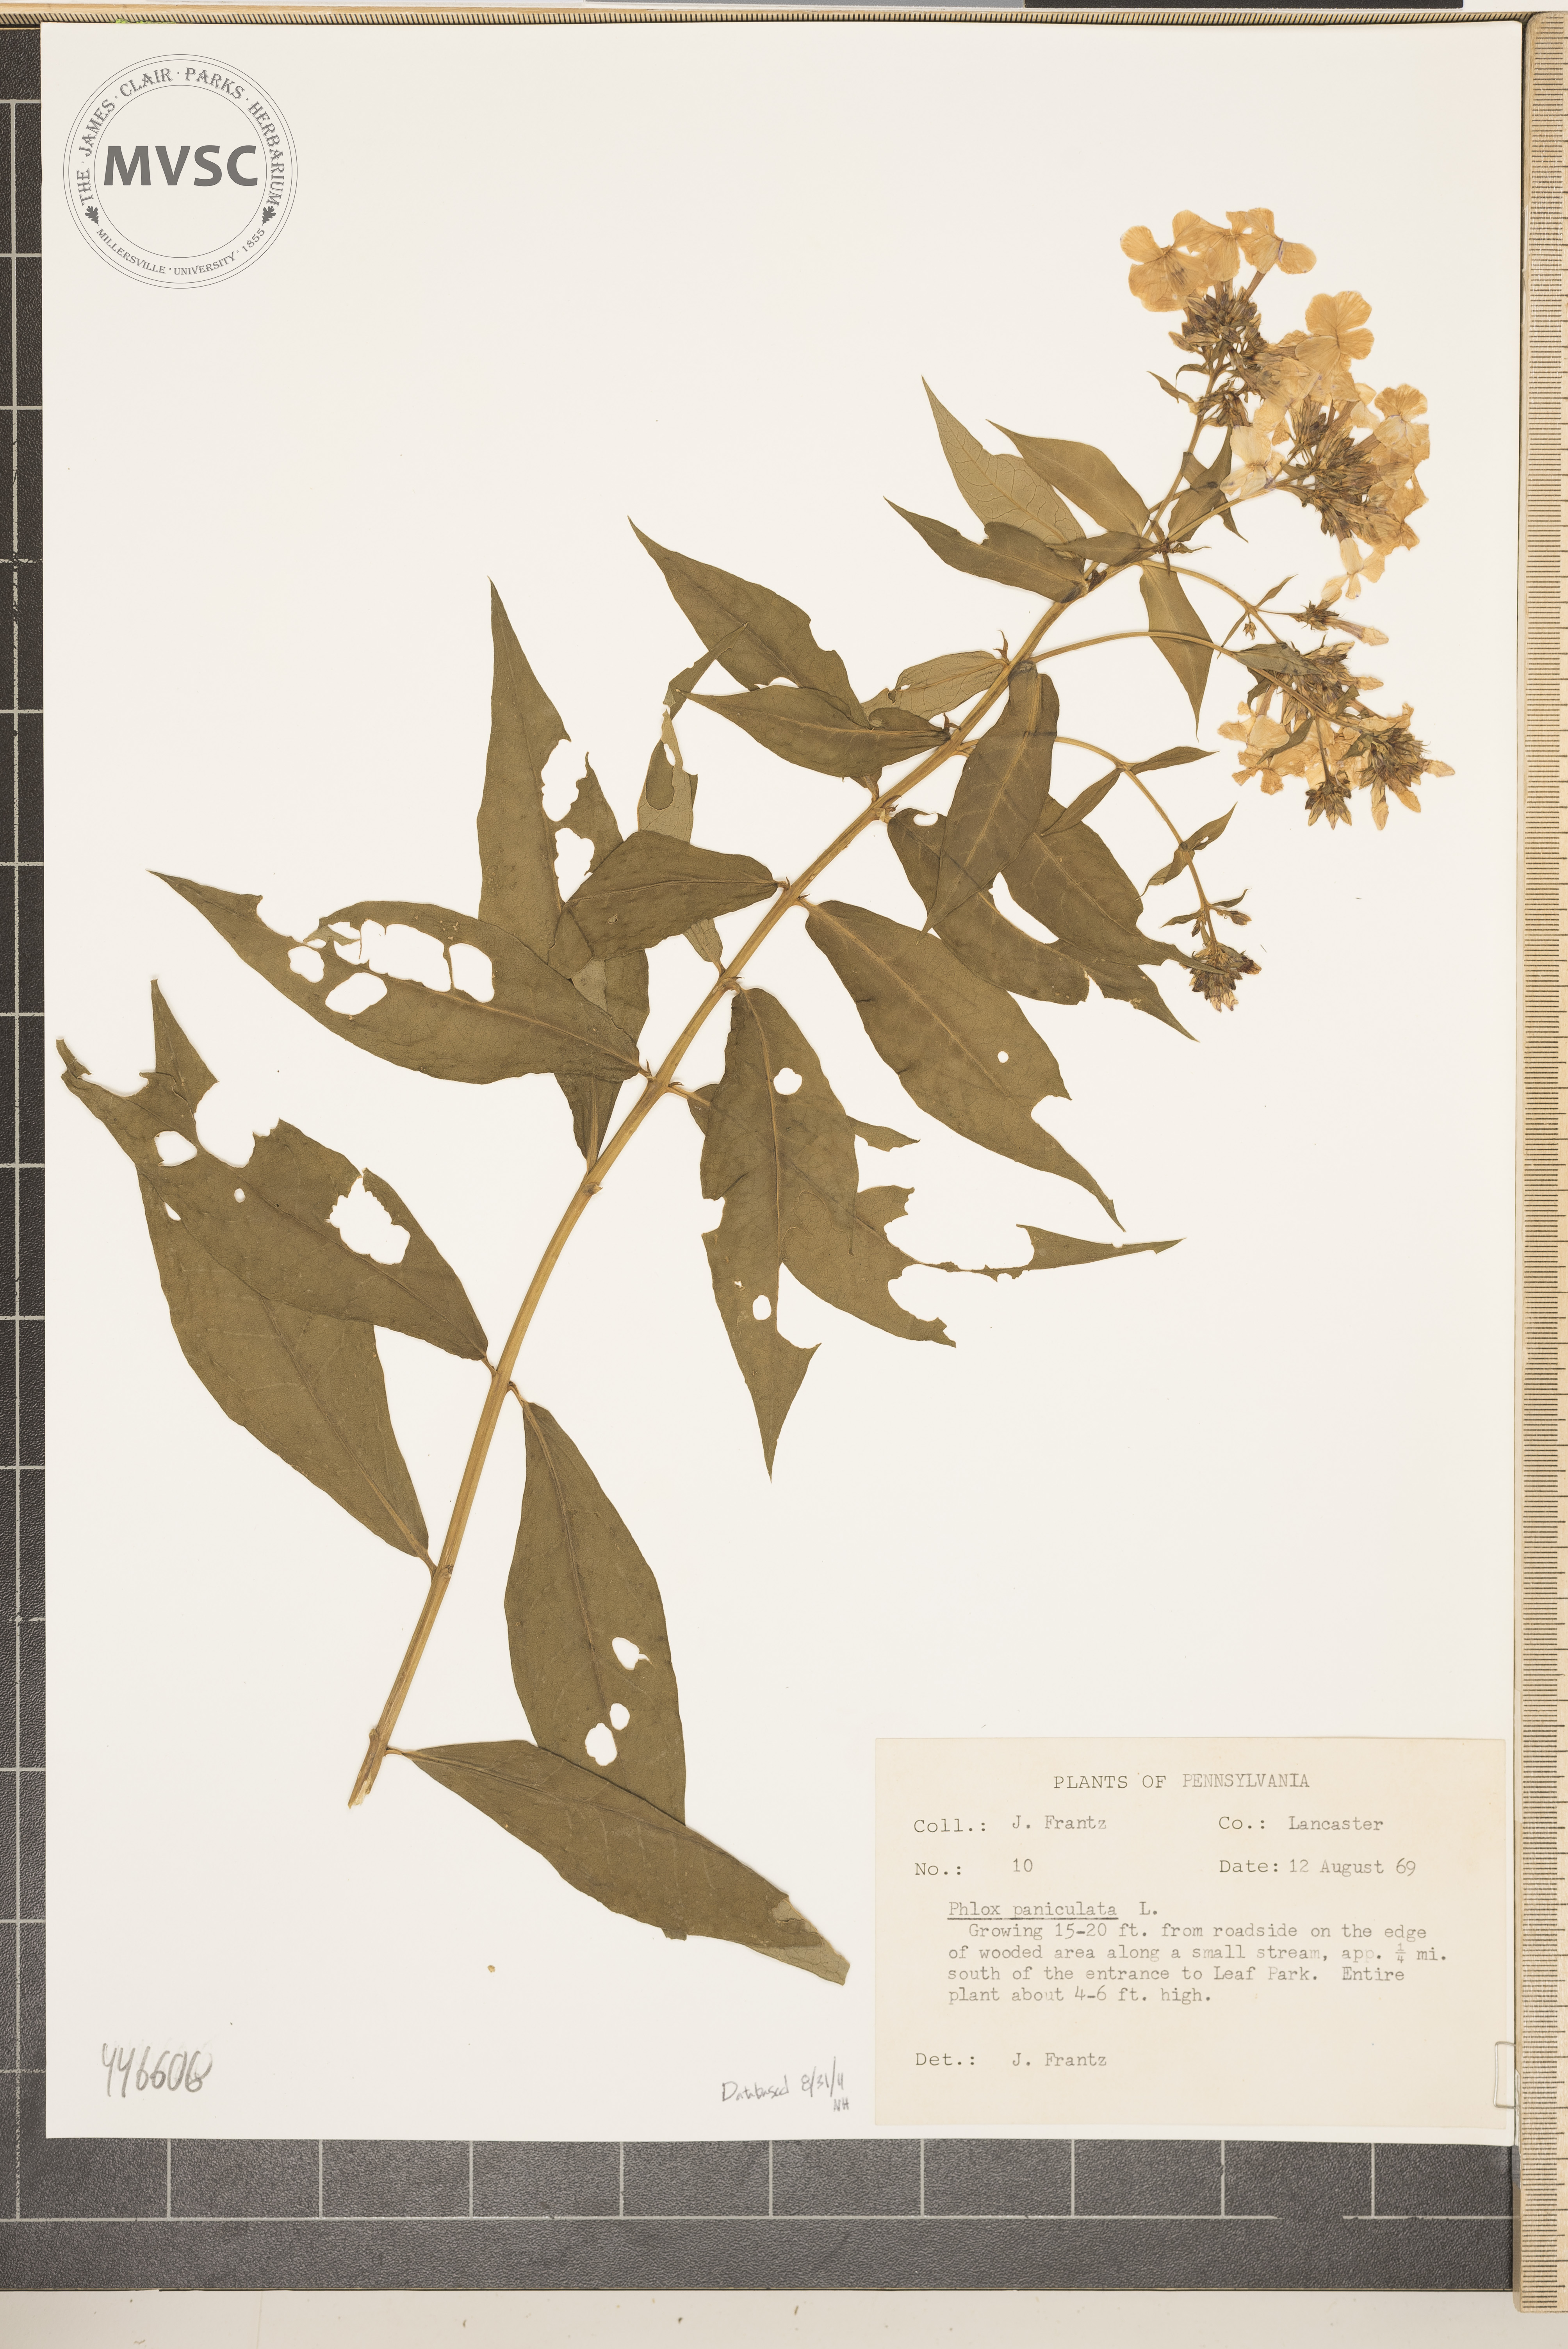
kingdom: Plantae
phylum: Tracheophyta
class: Magnoliopsida
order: Ericales
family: Polemoniaceae
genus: Phlox
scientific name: Phlox paniculata
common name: Fall phlox
